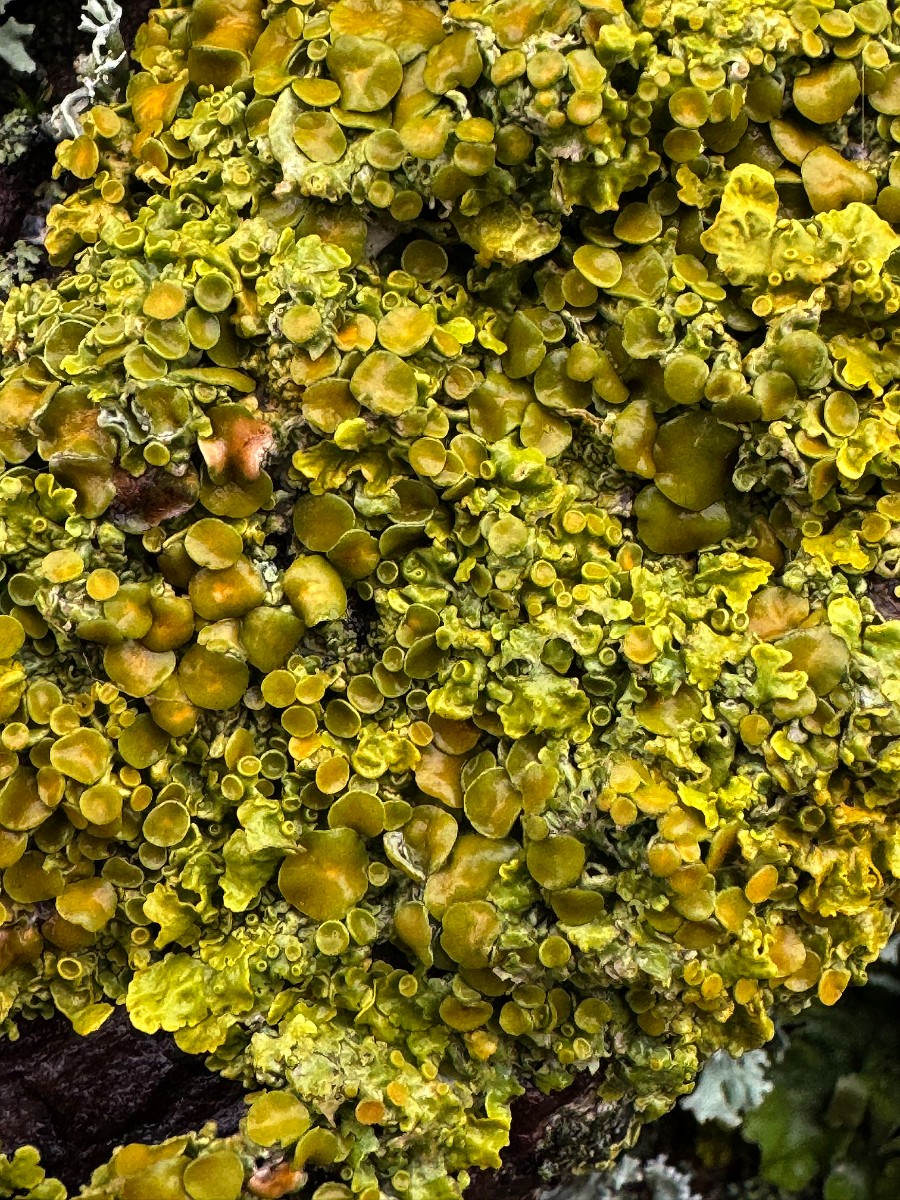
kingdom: Fungi
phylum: Ascomycota
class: Lecanoromycetes
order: Teloschistales
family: Teloschistaceae
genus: Xanthoria
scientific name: Xanthoria parietina
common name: almindelig væggelav
